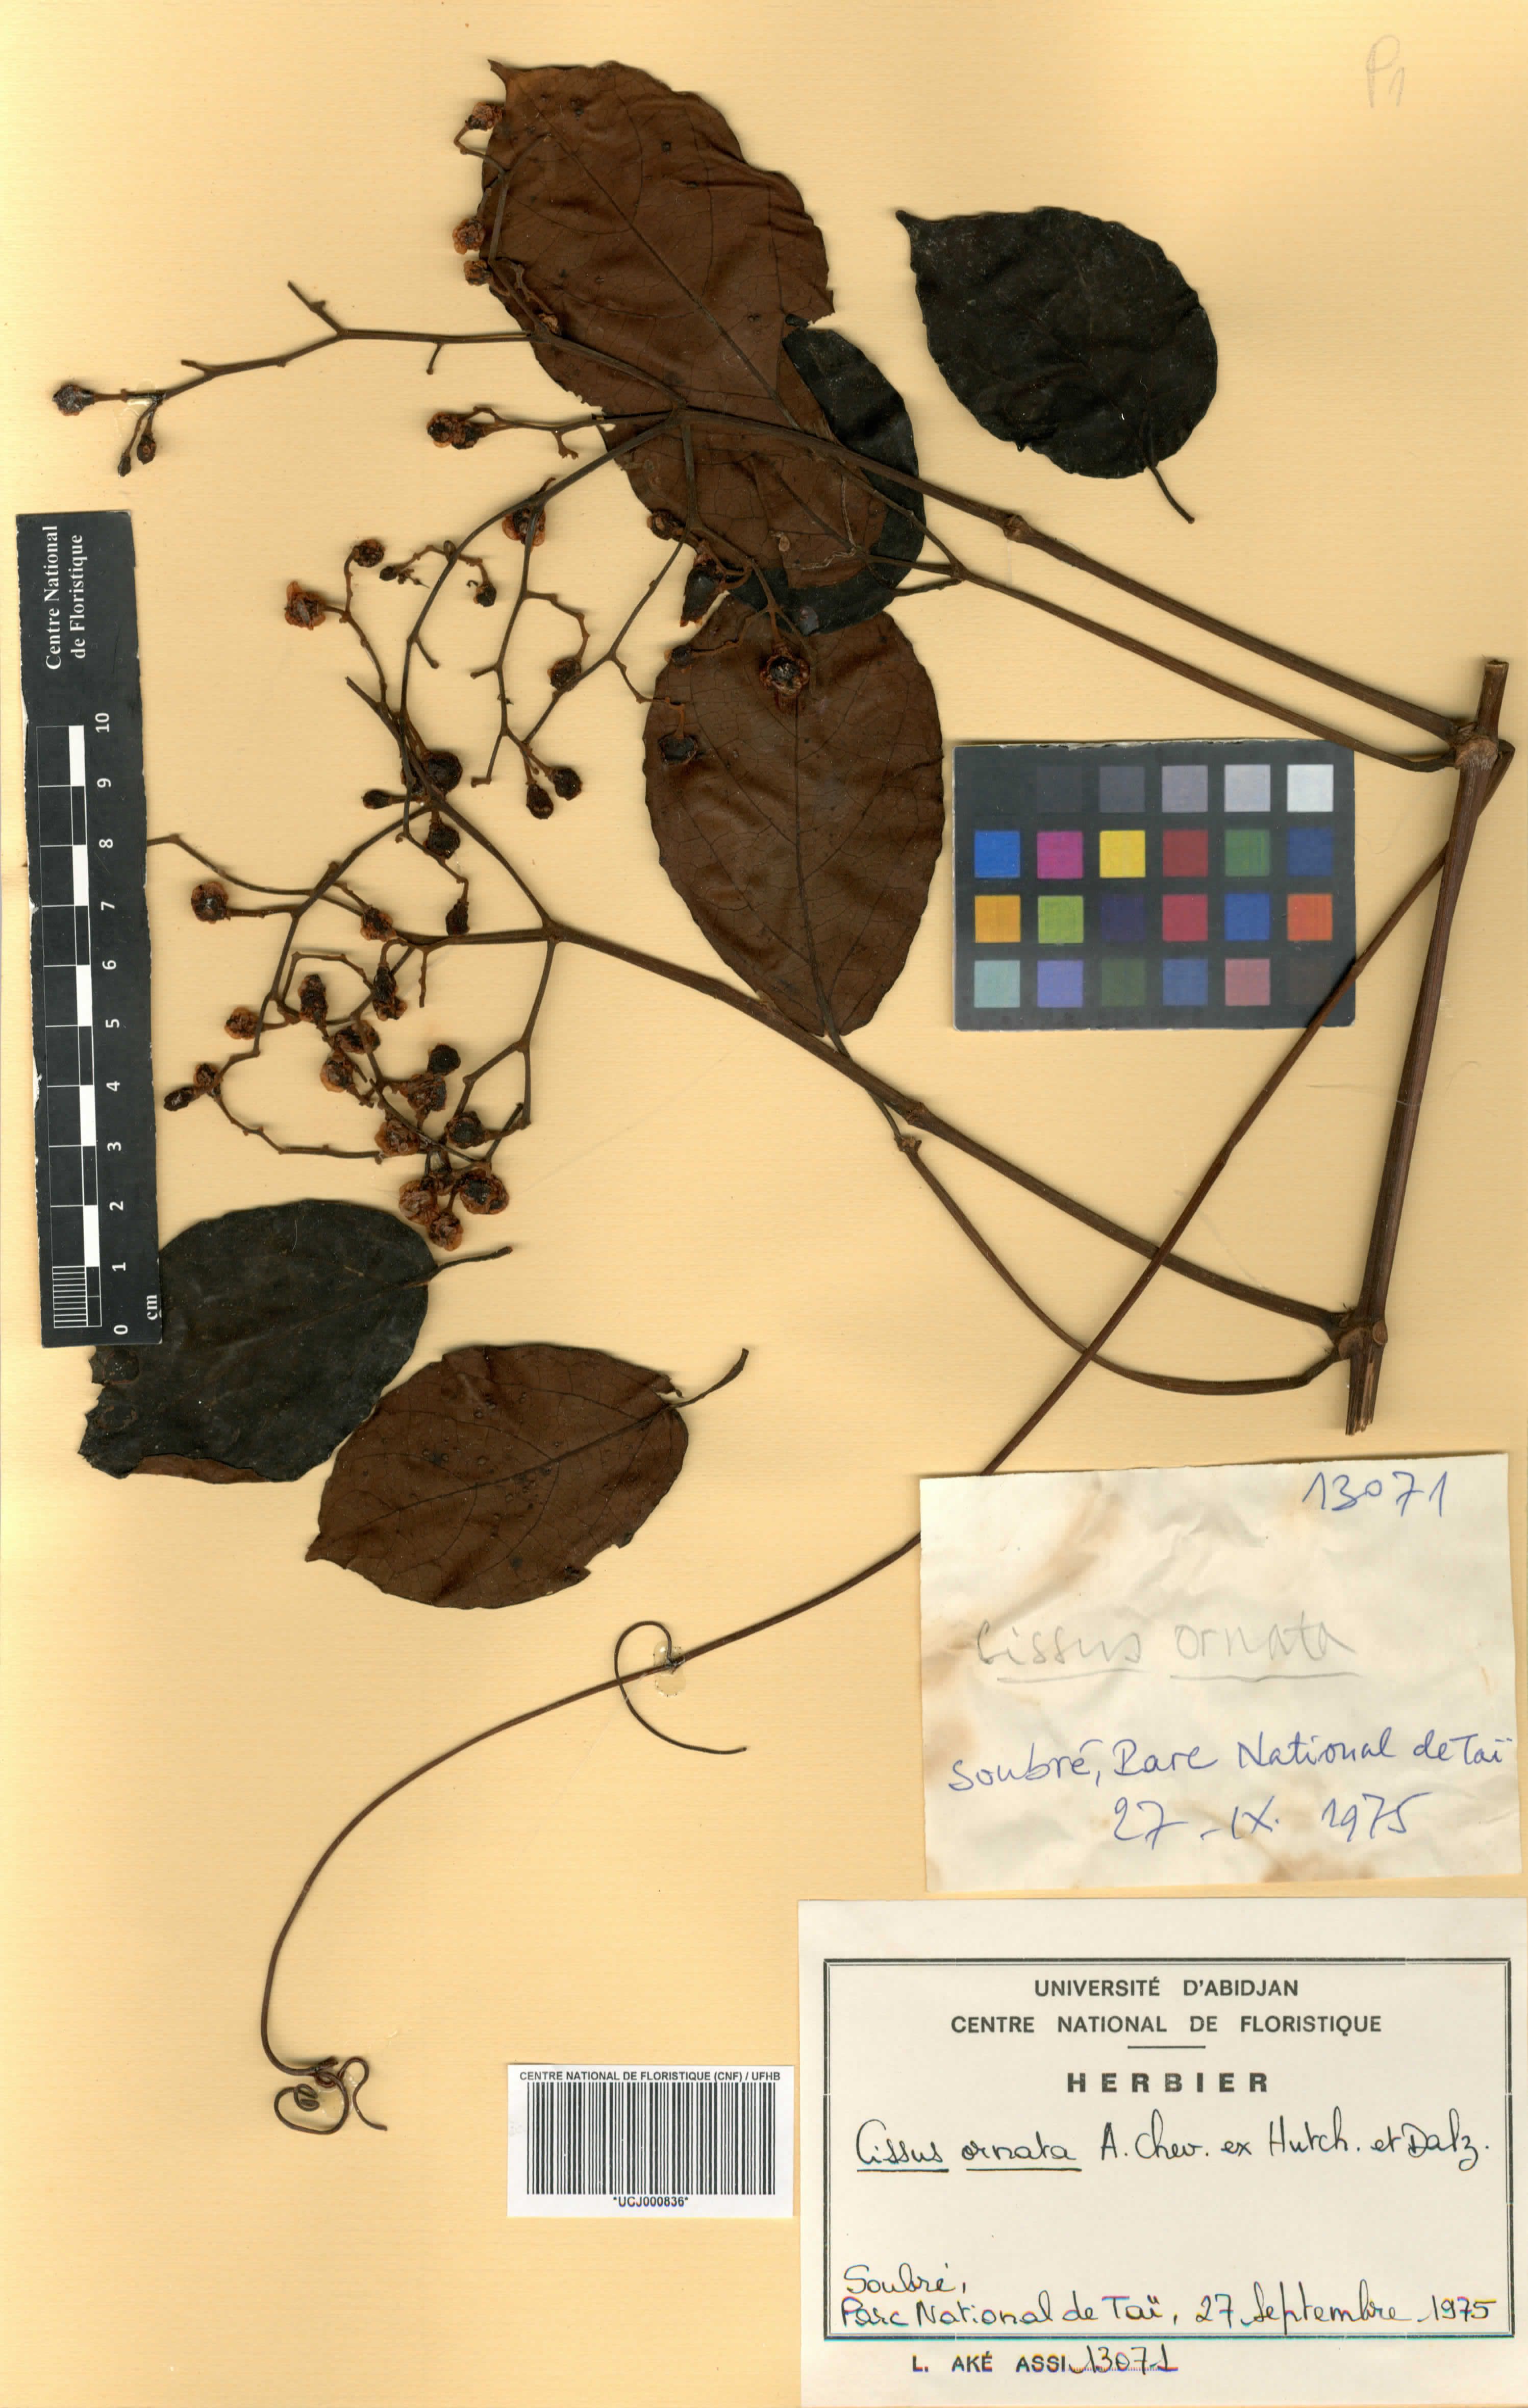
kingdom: Plantae
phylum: Tracheophyta
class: Magnoliopsida
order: Vitales
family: Vitaceae
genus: Cyphostemma
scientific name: Cyphostemma ornatum
